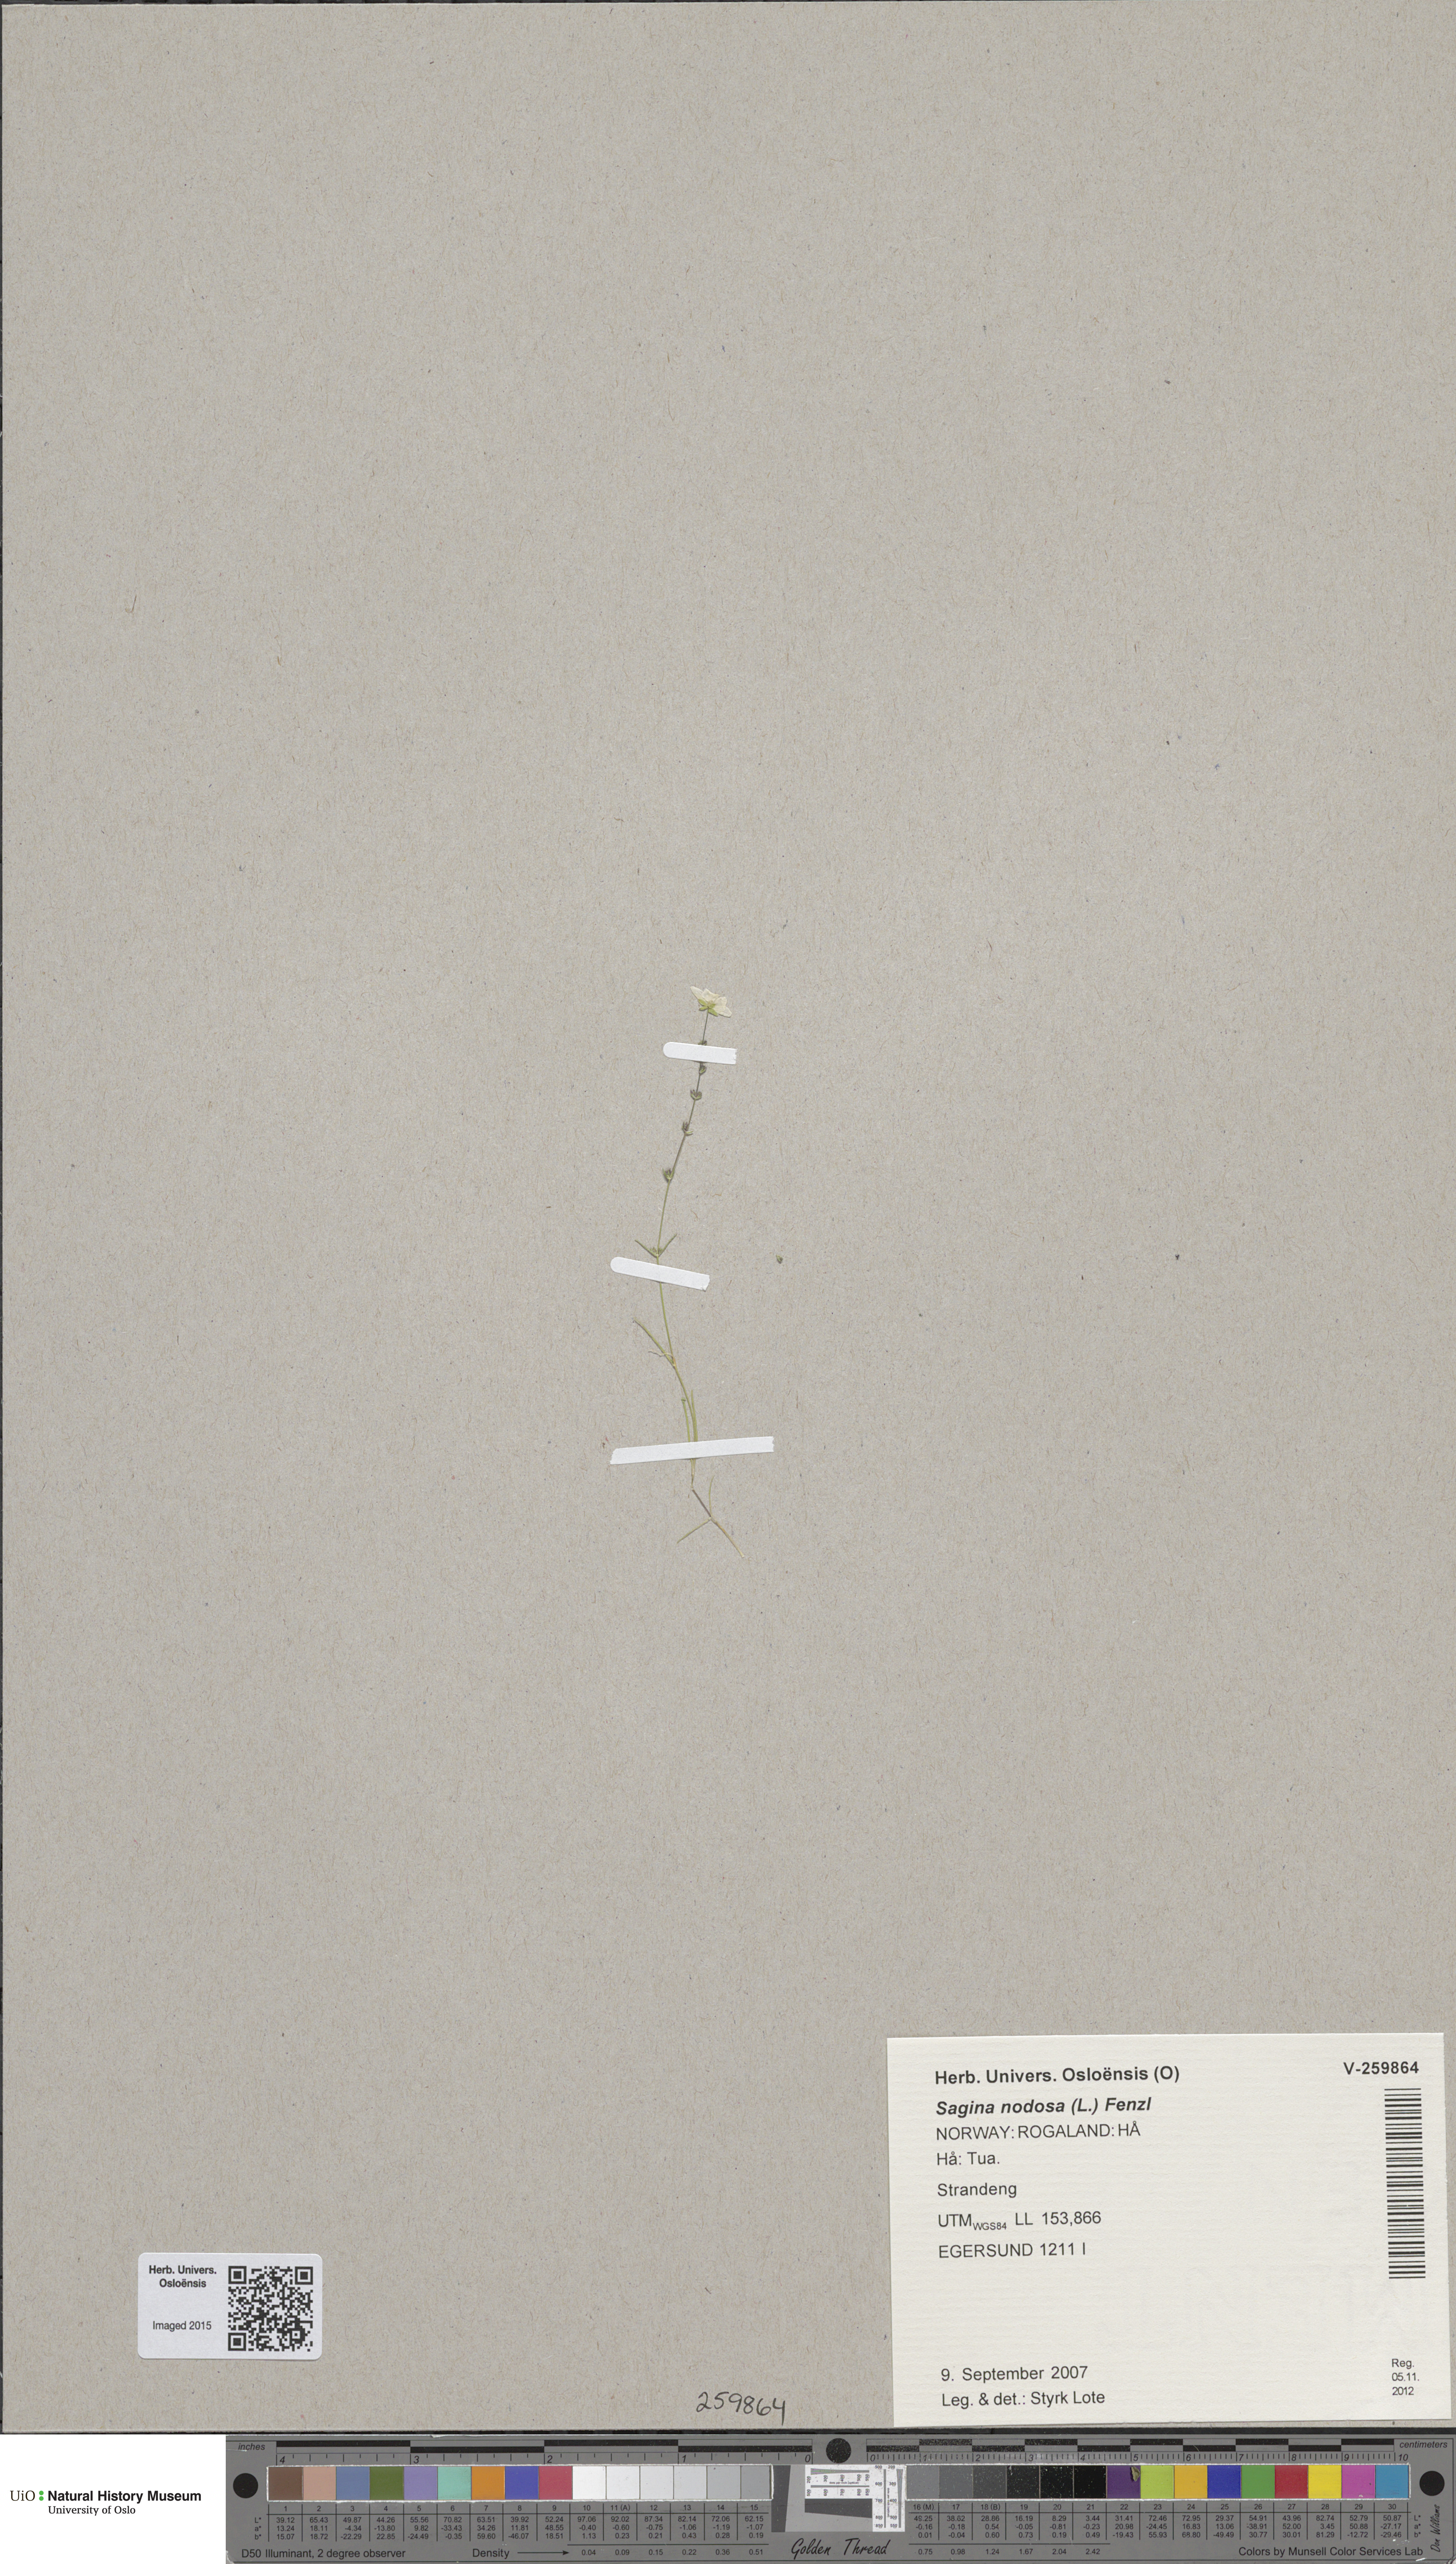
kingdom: Plantae
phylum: Tracheophyta
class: Magnoliopsida
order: Caryophyllales
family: Caryophyllaceae
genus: Sagina
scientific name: Sagina nodosa
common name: Knotted pearlwort
